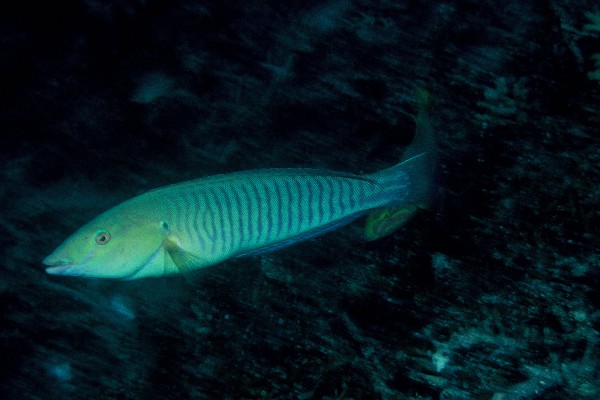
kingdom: Animalia
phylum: Chordata
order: Perciformes
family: Labridae
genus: Hologymnosus
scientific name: Hologymnosus doliatus
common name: Pastel ringwrasse
